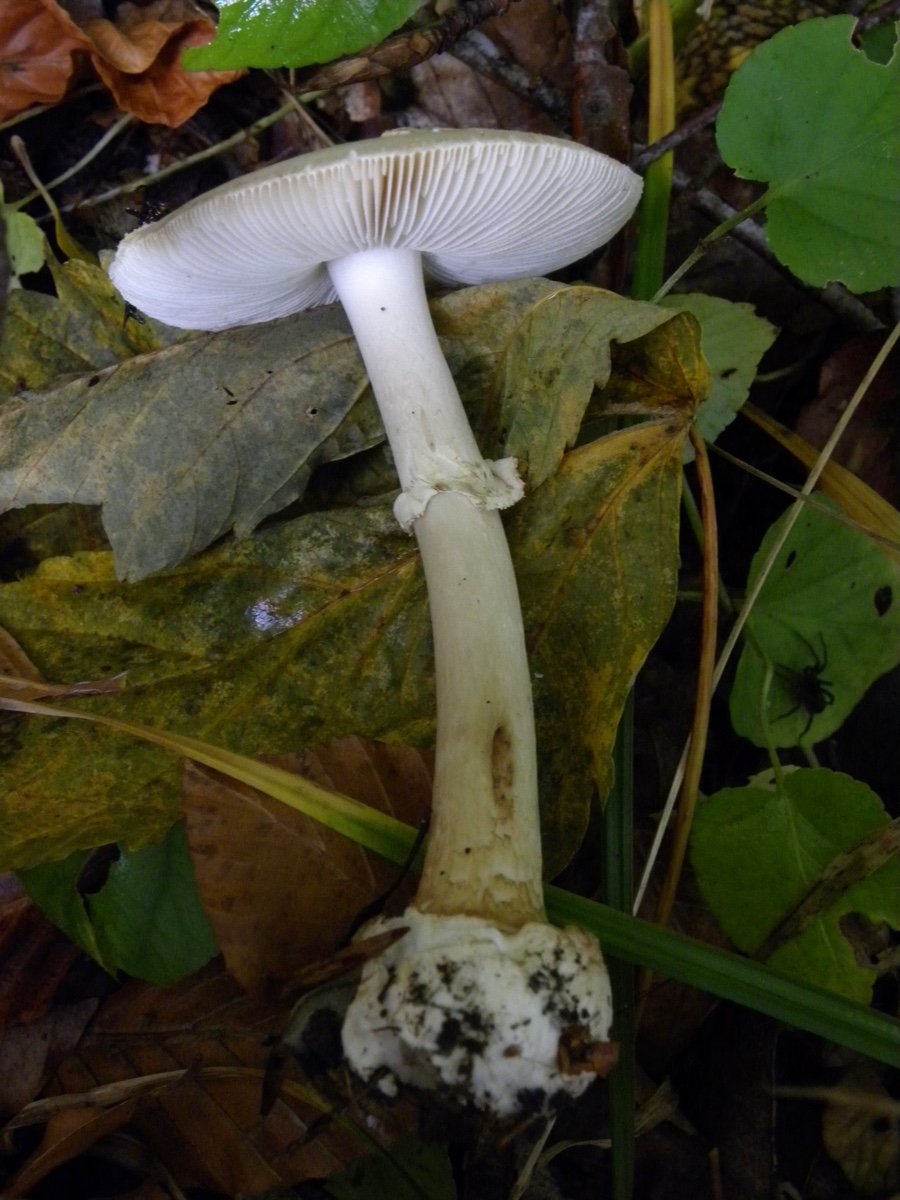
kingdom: Fungi
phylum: Basidiomycota
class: Agaricomycetes
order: Agaricales
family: Amanitaceae
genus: Amanita
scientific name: Amanita citrina
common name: kugleknoldet fluesvamp
